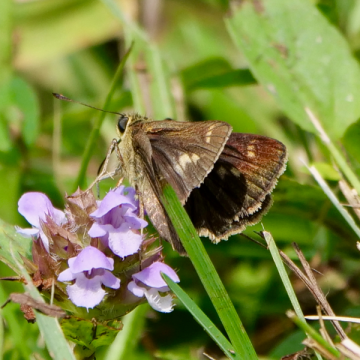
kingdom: Animalia
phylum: Arthropoda
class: Insecta
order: Lepidoptera
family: Hesperiidae
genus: Euphyes
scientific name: Euphyes
